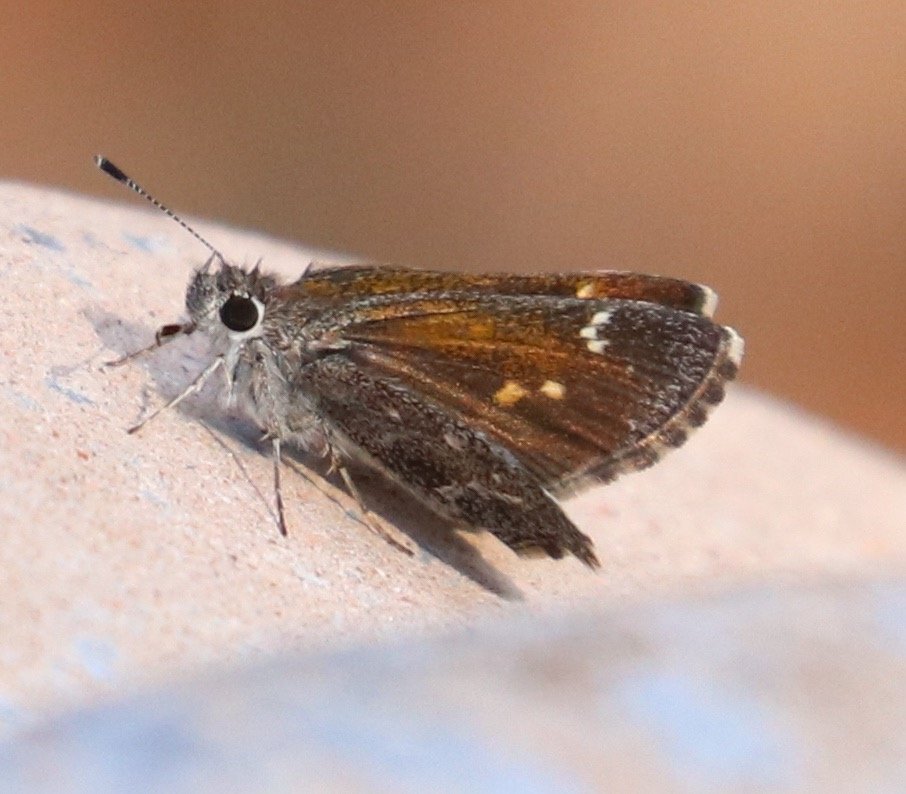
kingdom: Animalia
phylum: Arthropoda
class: Insecta
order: Lepidoptera
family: Hesperiidae
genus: Mastor
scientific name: Mastor aenus
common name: Bronze Roadside-Skipper
